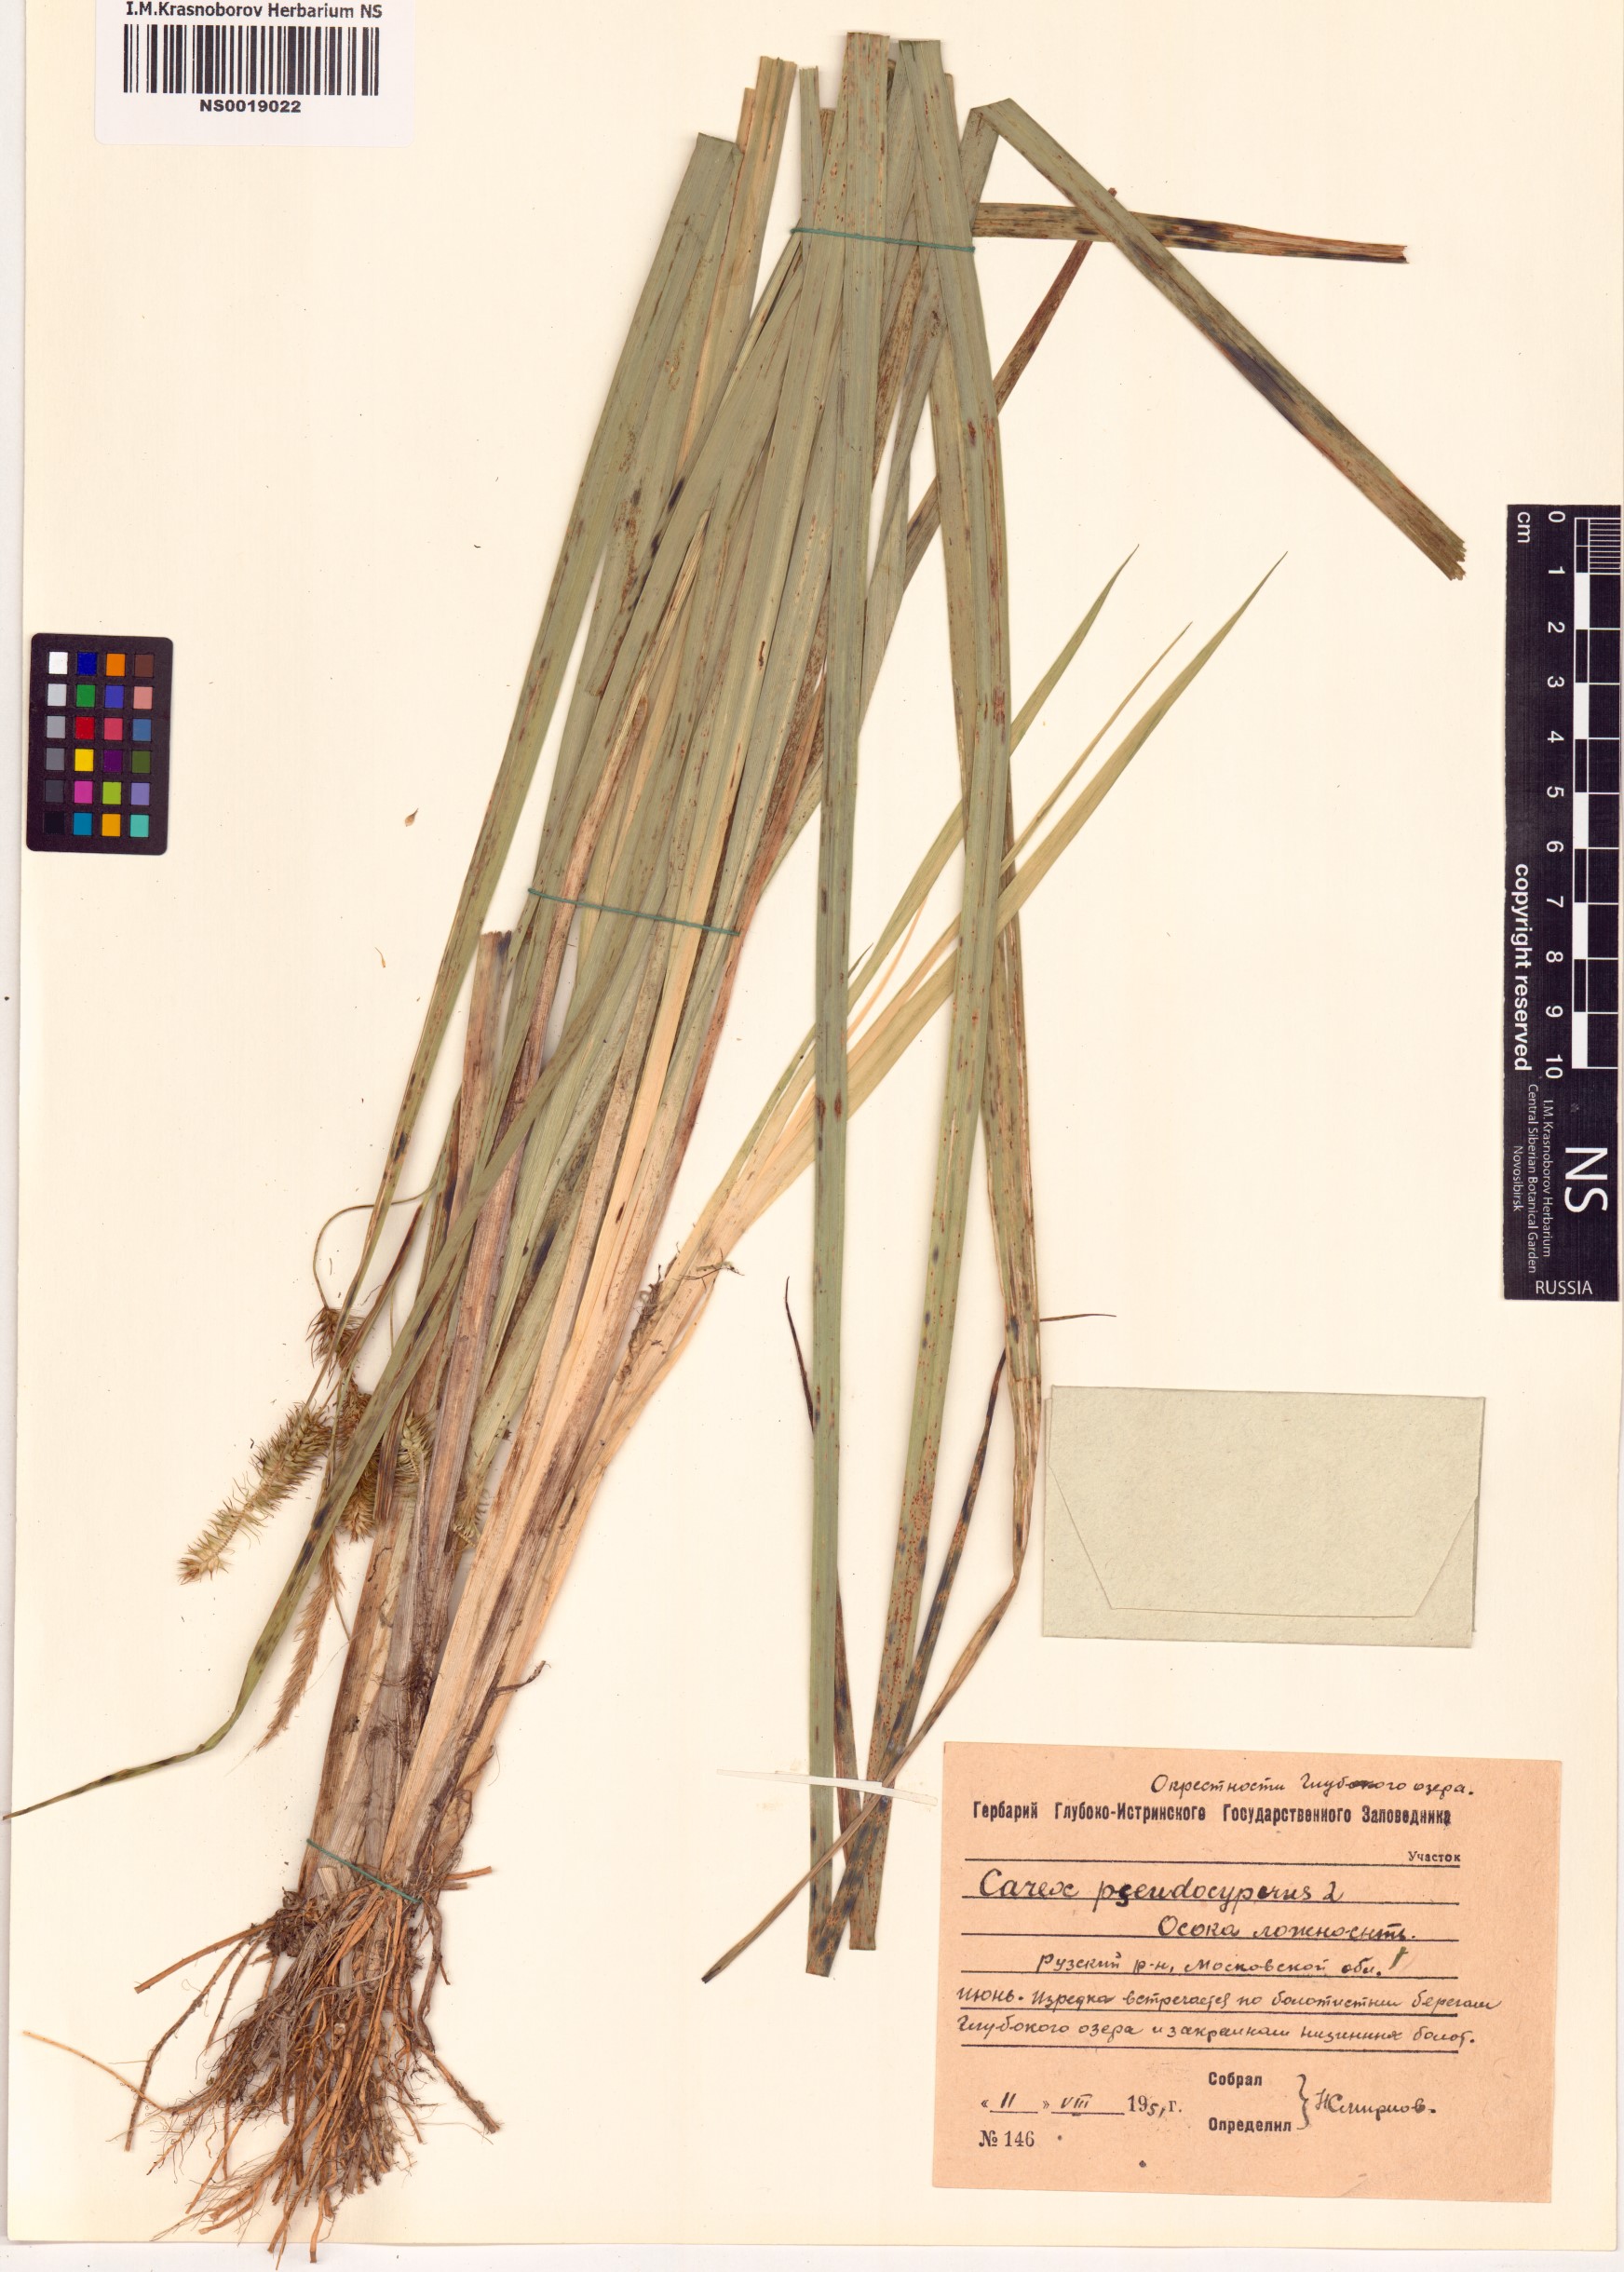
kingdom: Plantae
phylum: Tracheophyta
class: Liliopsida
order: Poales
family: Cyperaceae
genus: Carex
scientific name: Carex pseudocyperus
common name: Cyperus sedge
